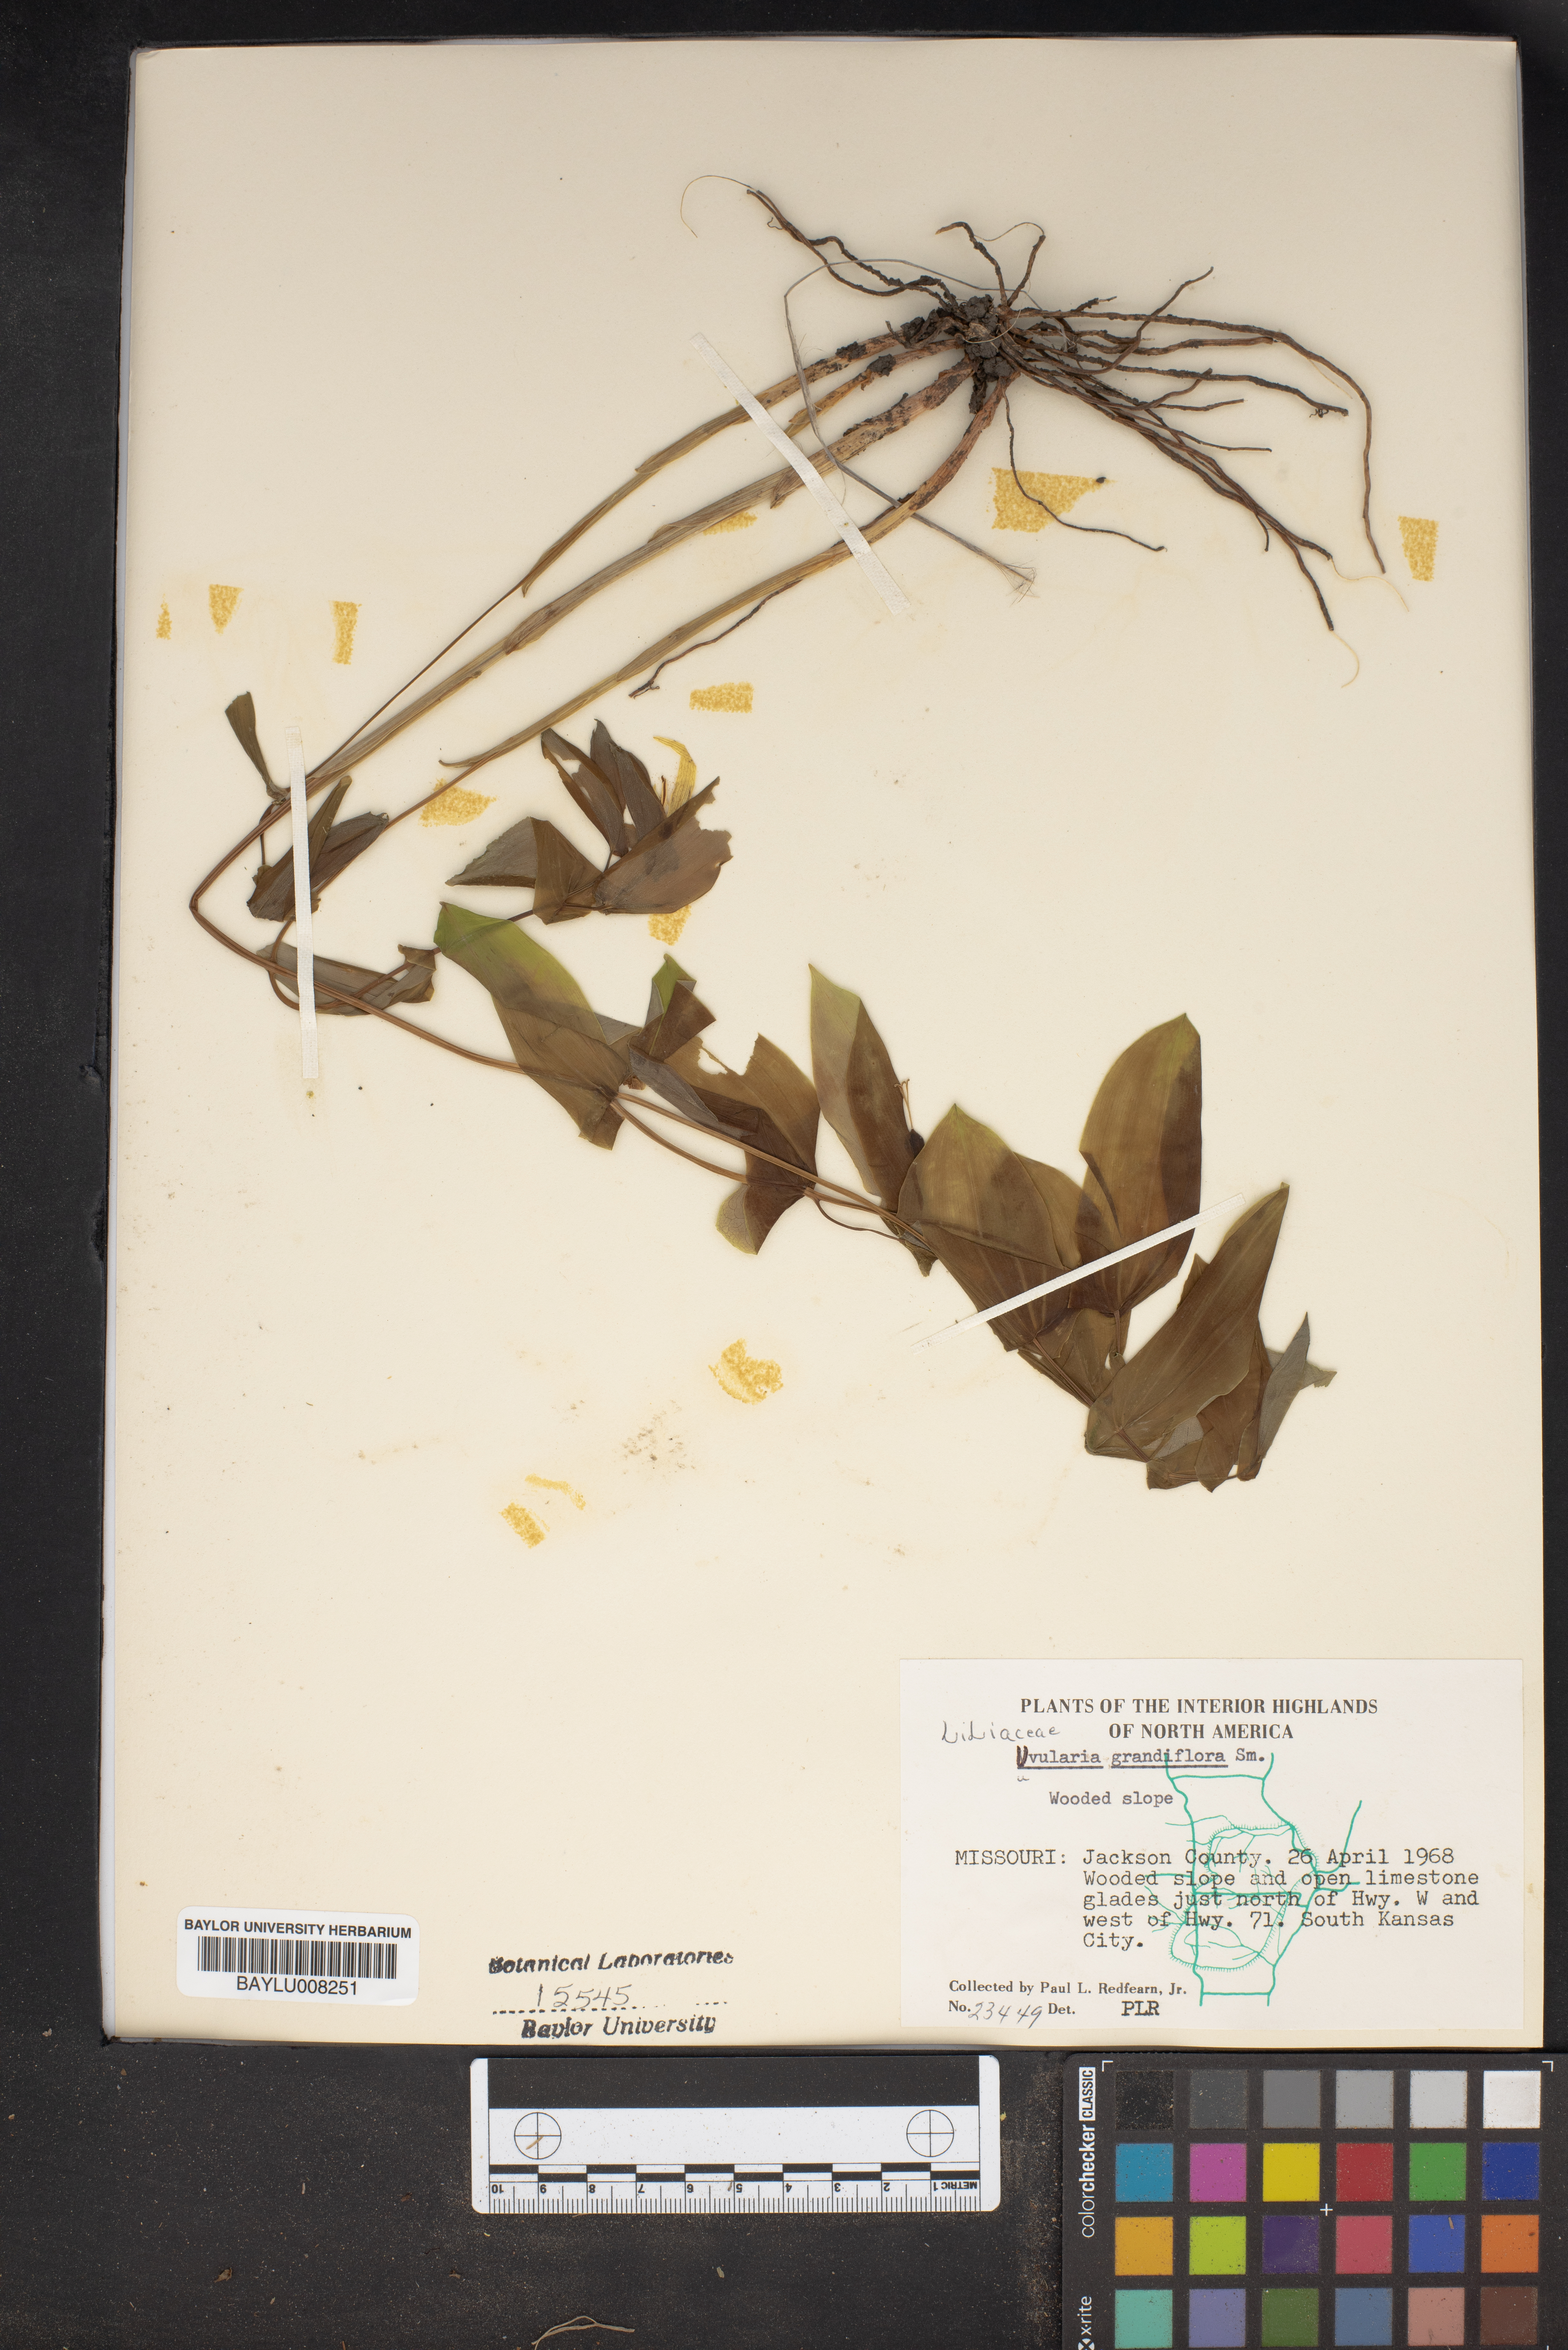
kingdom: Plantae
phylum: Tracheophyta
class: Liliopsida
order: Liliales
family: Colchicaceae
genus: Uvularia
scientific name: Uvularia grandiflora
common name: Bellwort
